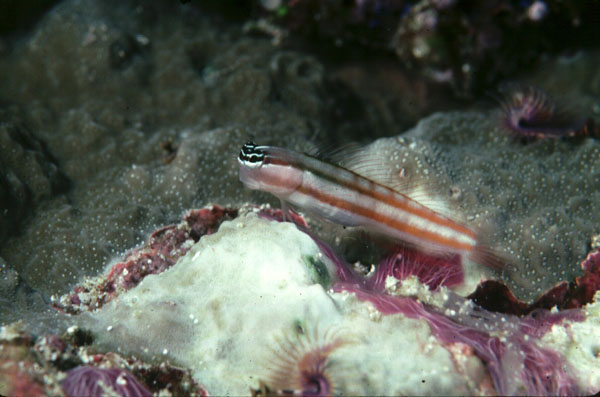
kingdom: Animalia
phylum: Chordata
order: Perciformes
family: Blenniidae
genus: Ecsenius
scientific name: Ecsenius bathi
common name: Bath's comb-tooth
